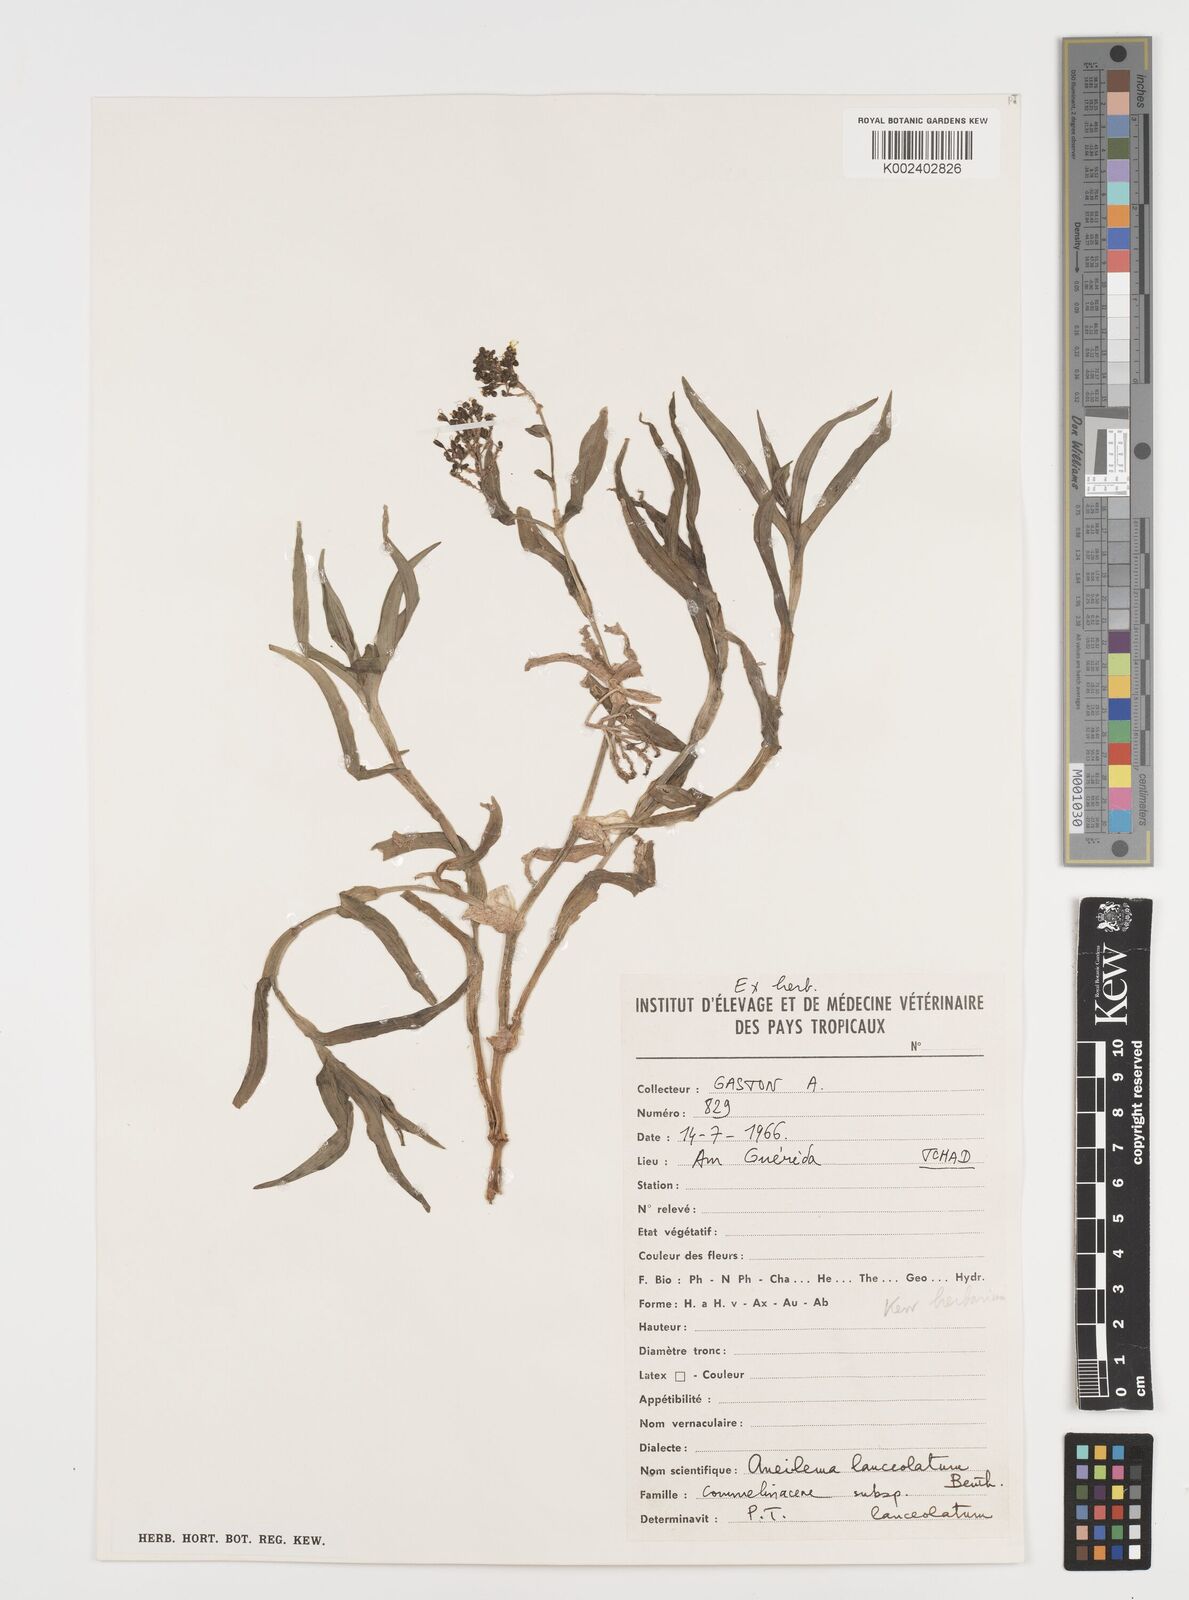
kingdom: Plantae
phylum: Tracheophyta
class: Liliopsida
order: Commelinales
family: Commelinaceae
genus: Aneilema
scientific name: Aneilema lanceolatum
